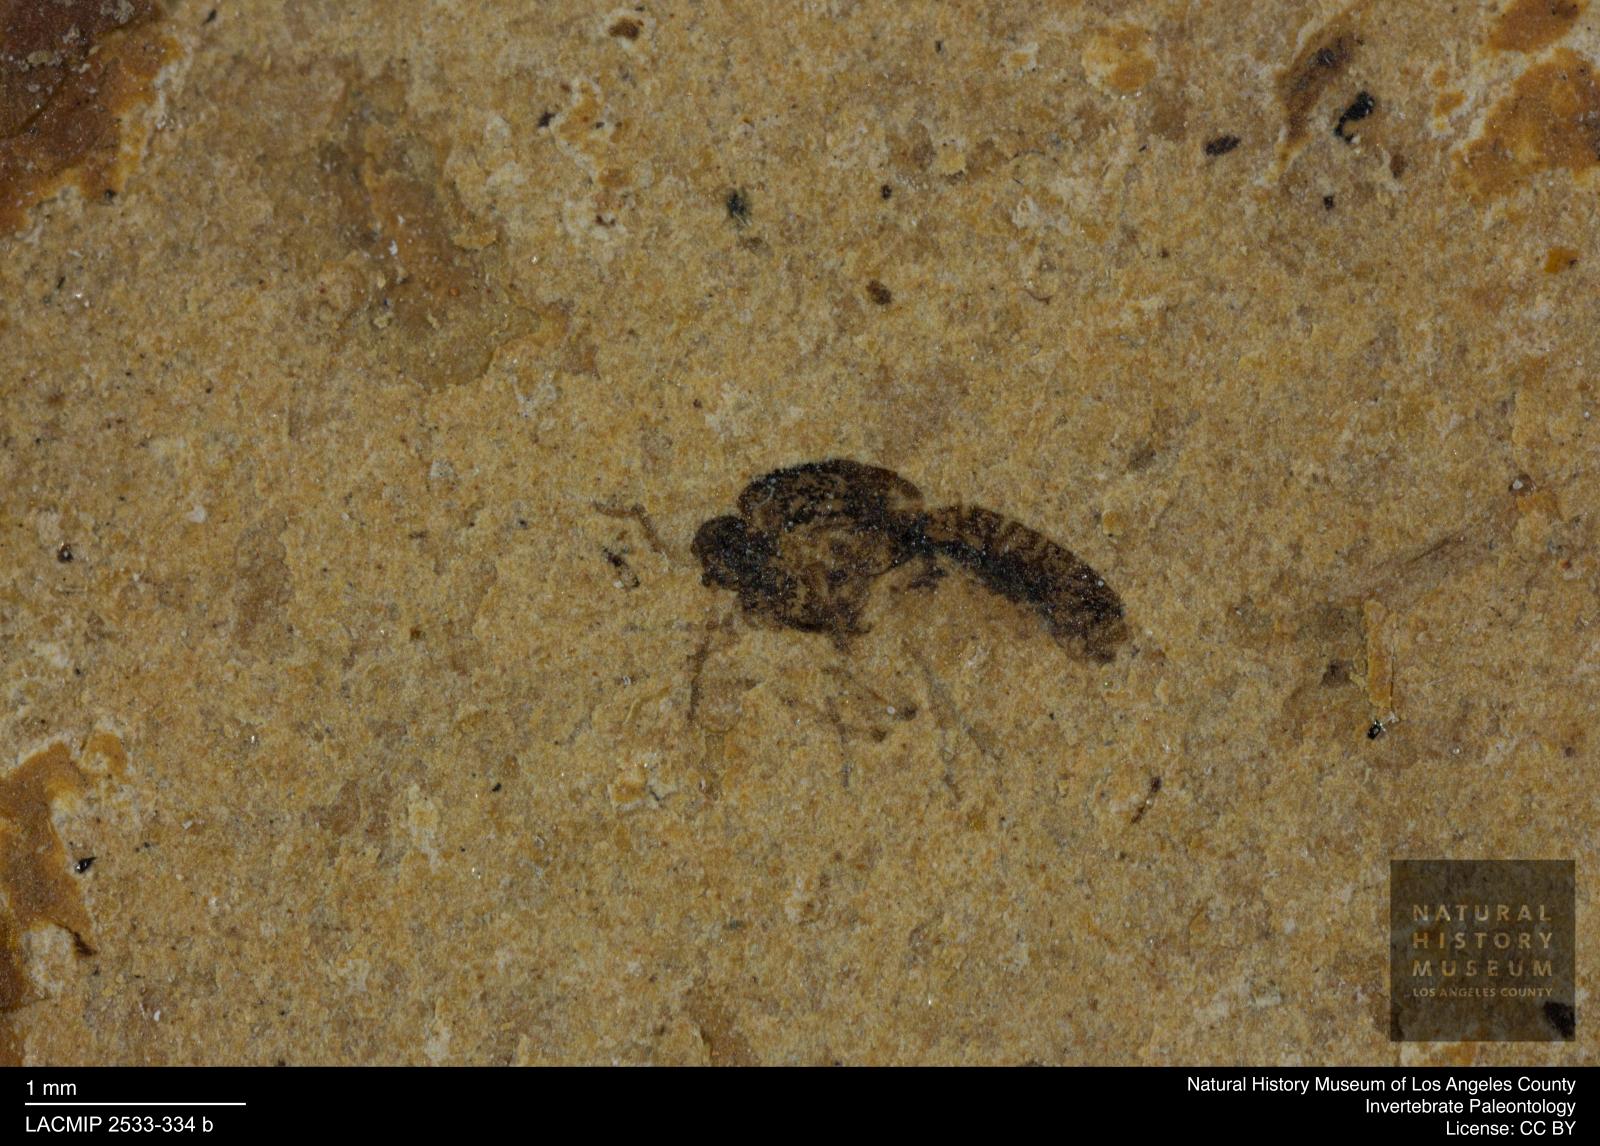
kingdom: Animalia
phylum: Arthropoda
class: Insecta
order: Diptera
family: Ceratopogonidae
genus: Culicoides
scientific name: Culicoides abbreviatipennis
